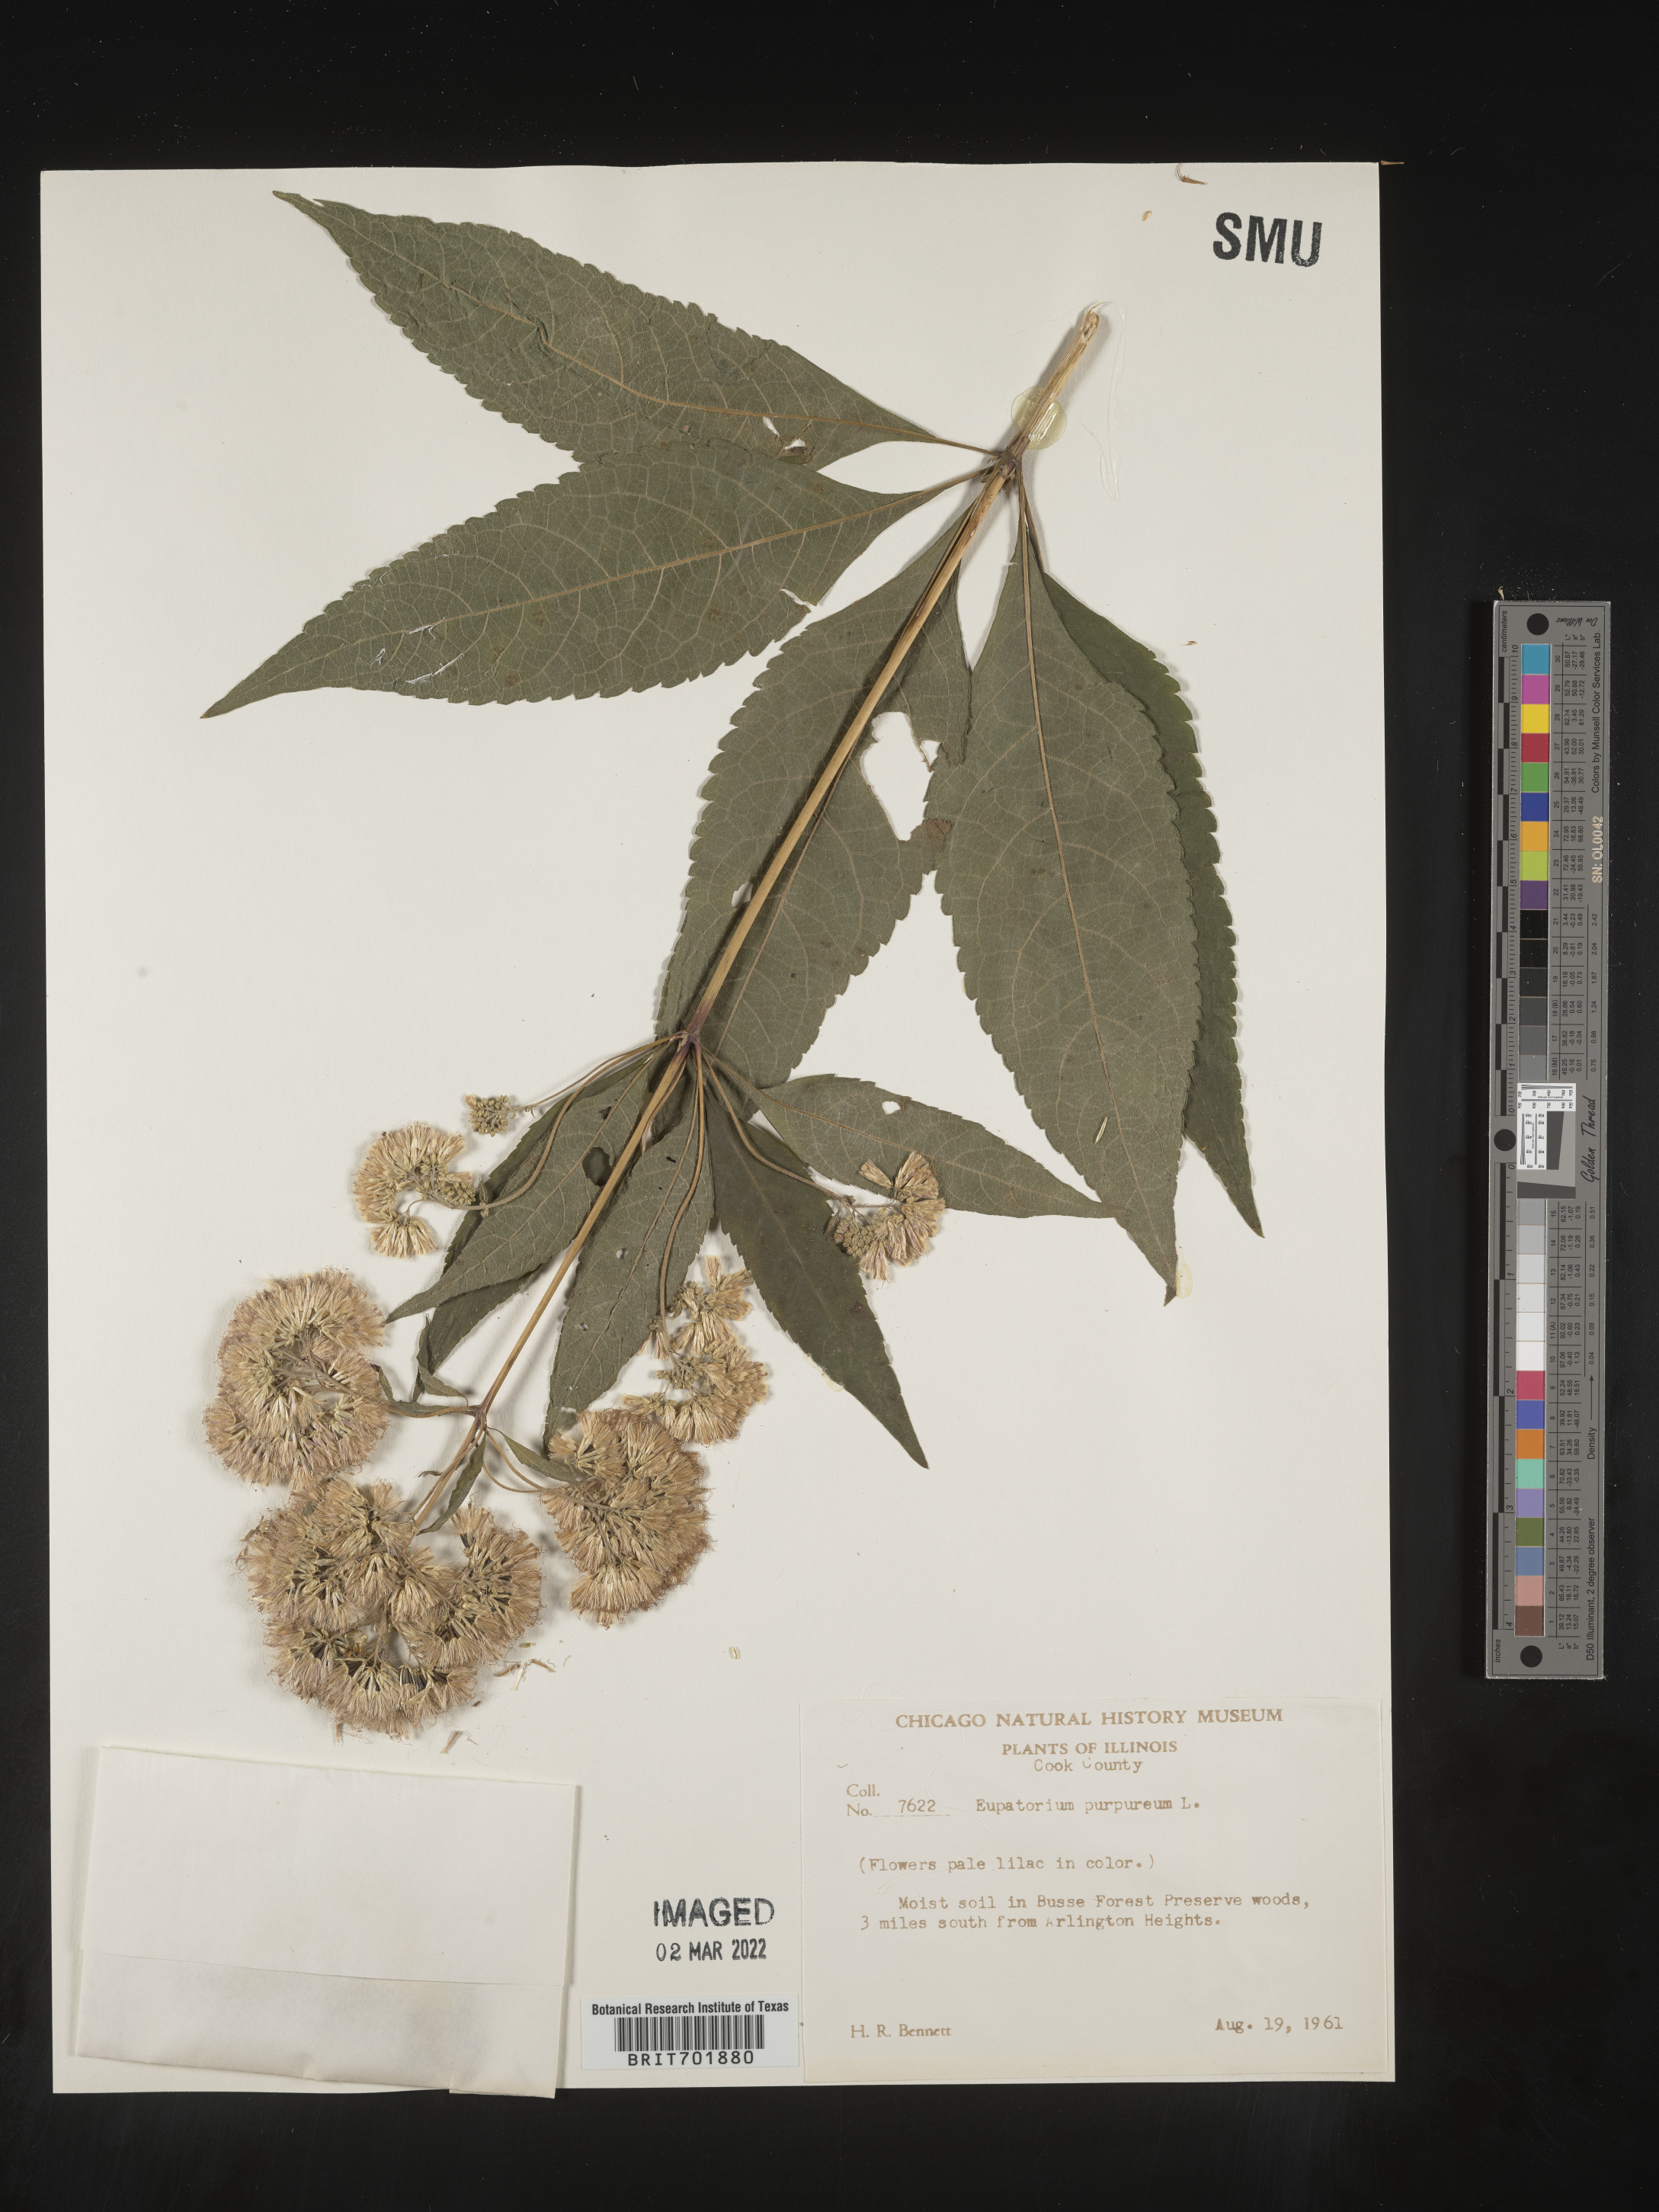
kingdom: Plantae
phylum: Tracheophyta
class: Magnoliopsida
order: Asterales
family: Asteraceae
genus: Eupatorium
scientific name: Eupatorium quaternum
